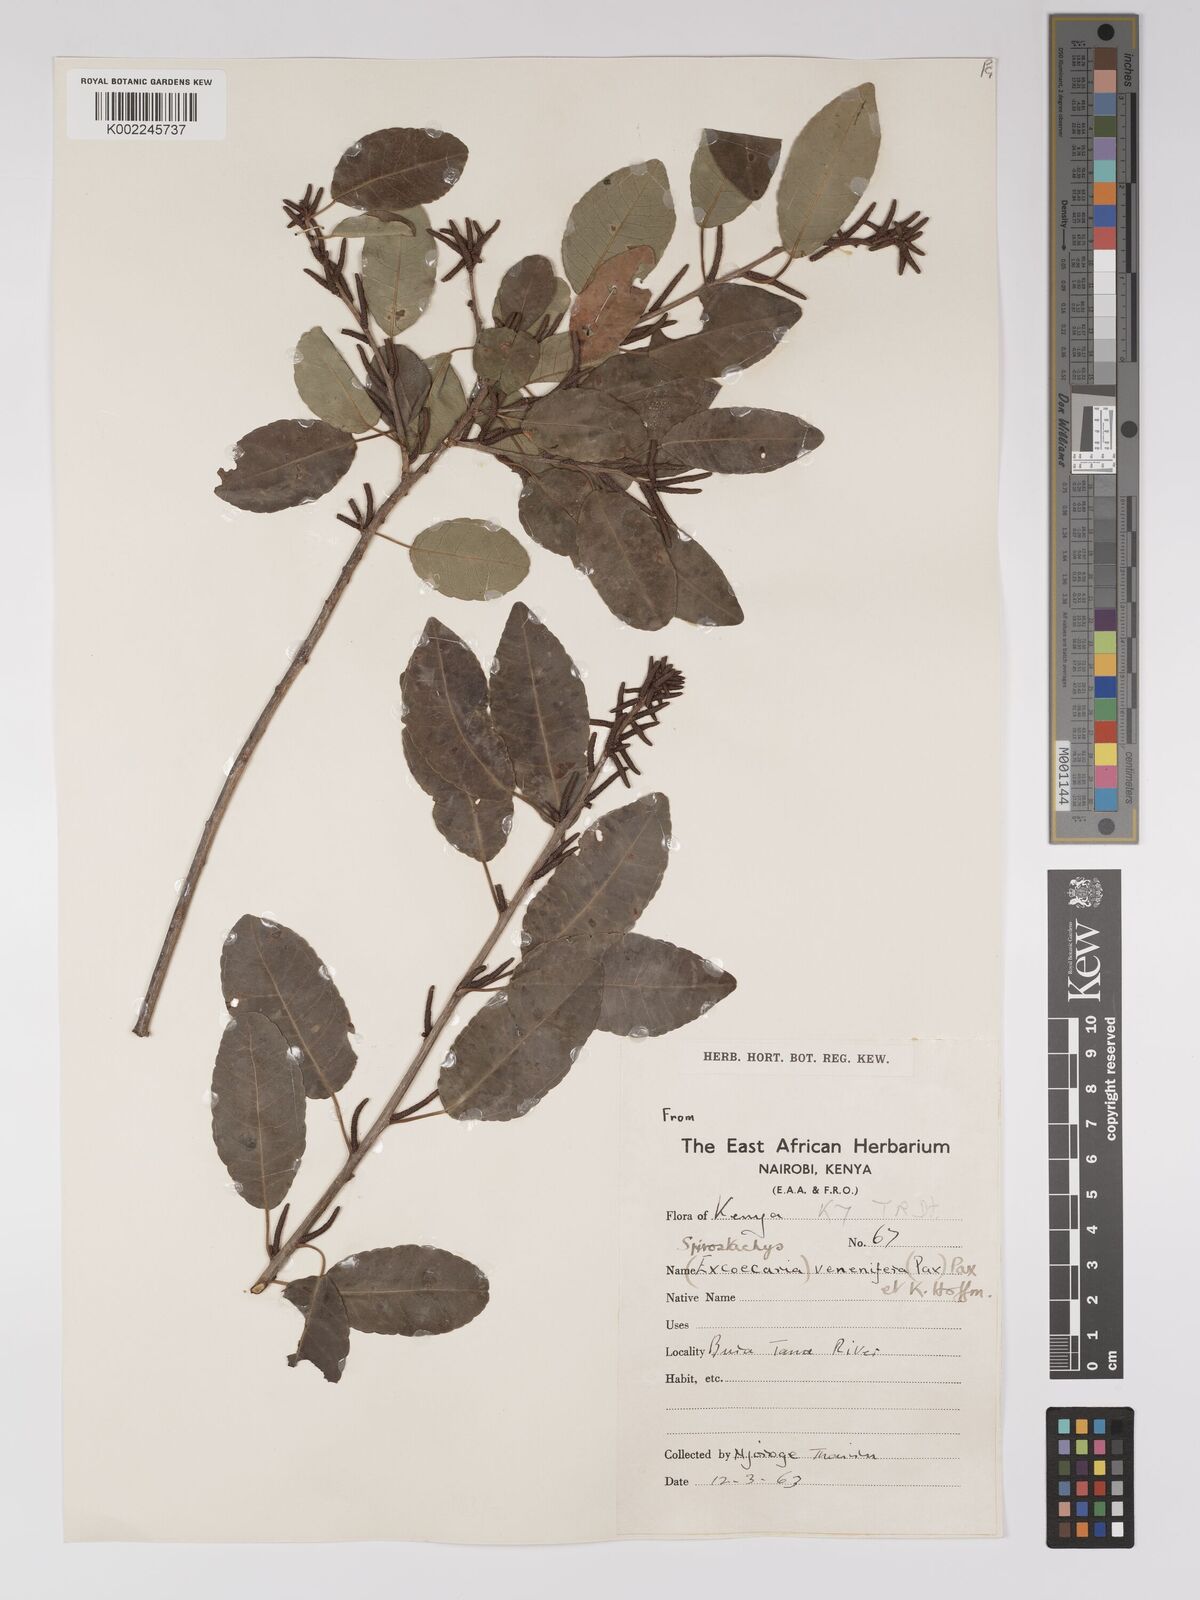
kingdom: Plantae
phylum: Tracheophyta
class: Magnoliopsida
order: Malpighiales
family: Euphorbiaceae
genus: Spirostachys
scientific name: Spirostachys venenifera
